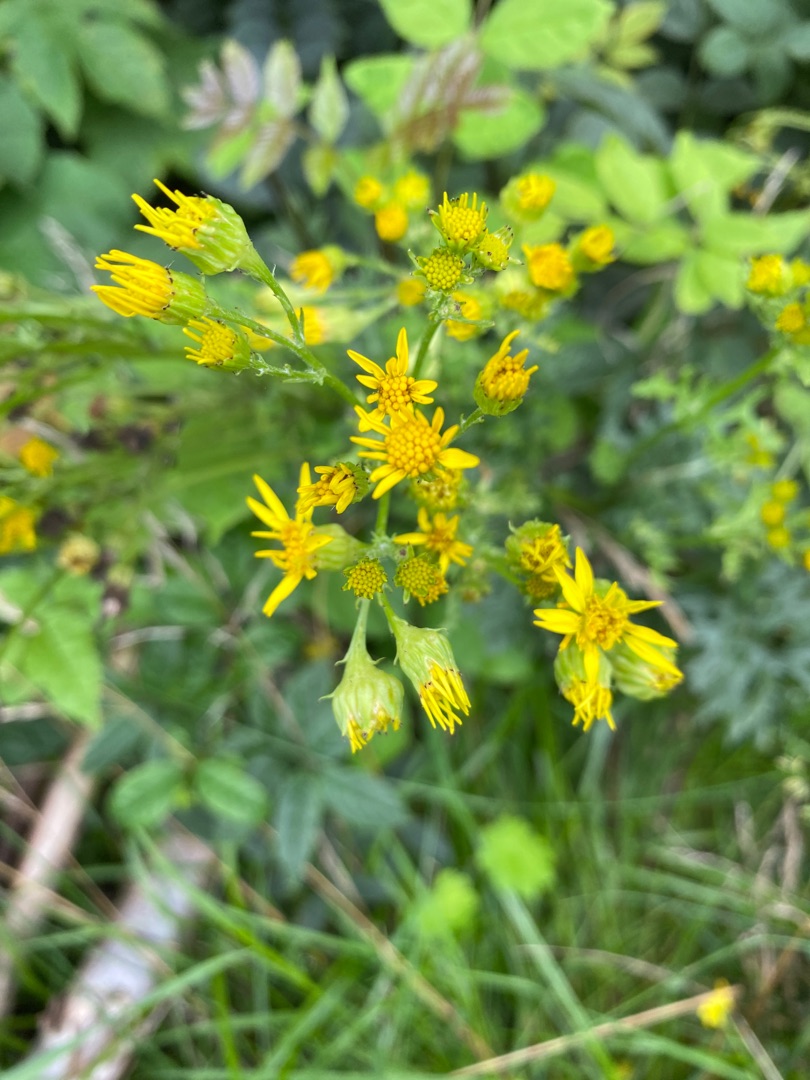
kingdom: Plantae
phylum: Tracheophyta
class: Magnoliopsida
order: Asterales
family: Asteraceae
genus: Jacobaea
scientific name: Jacobaea vulgaris
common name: Eng-brandbæger
